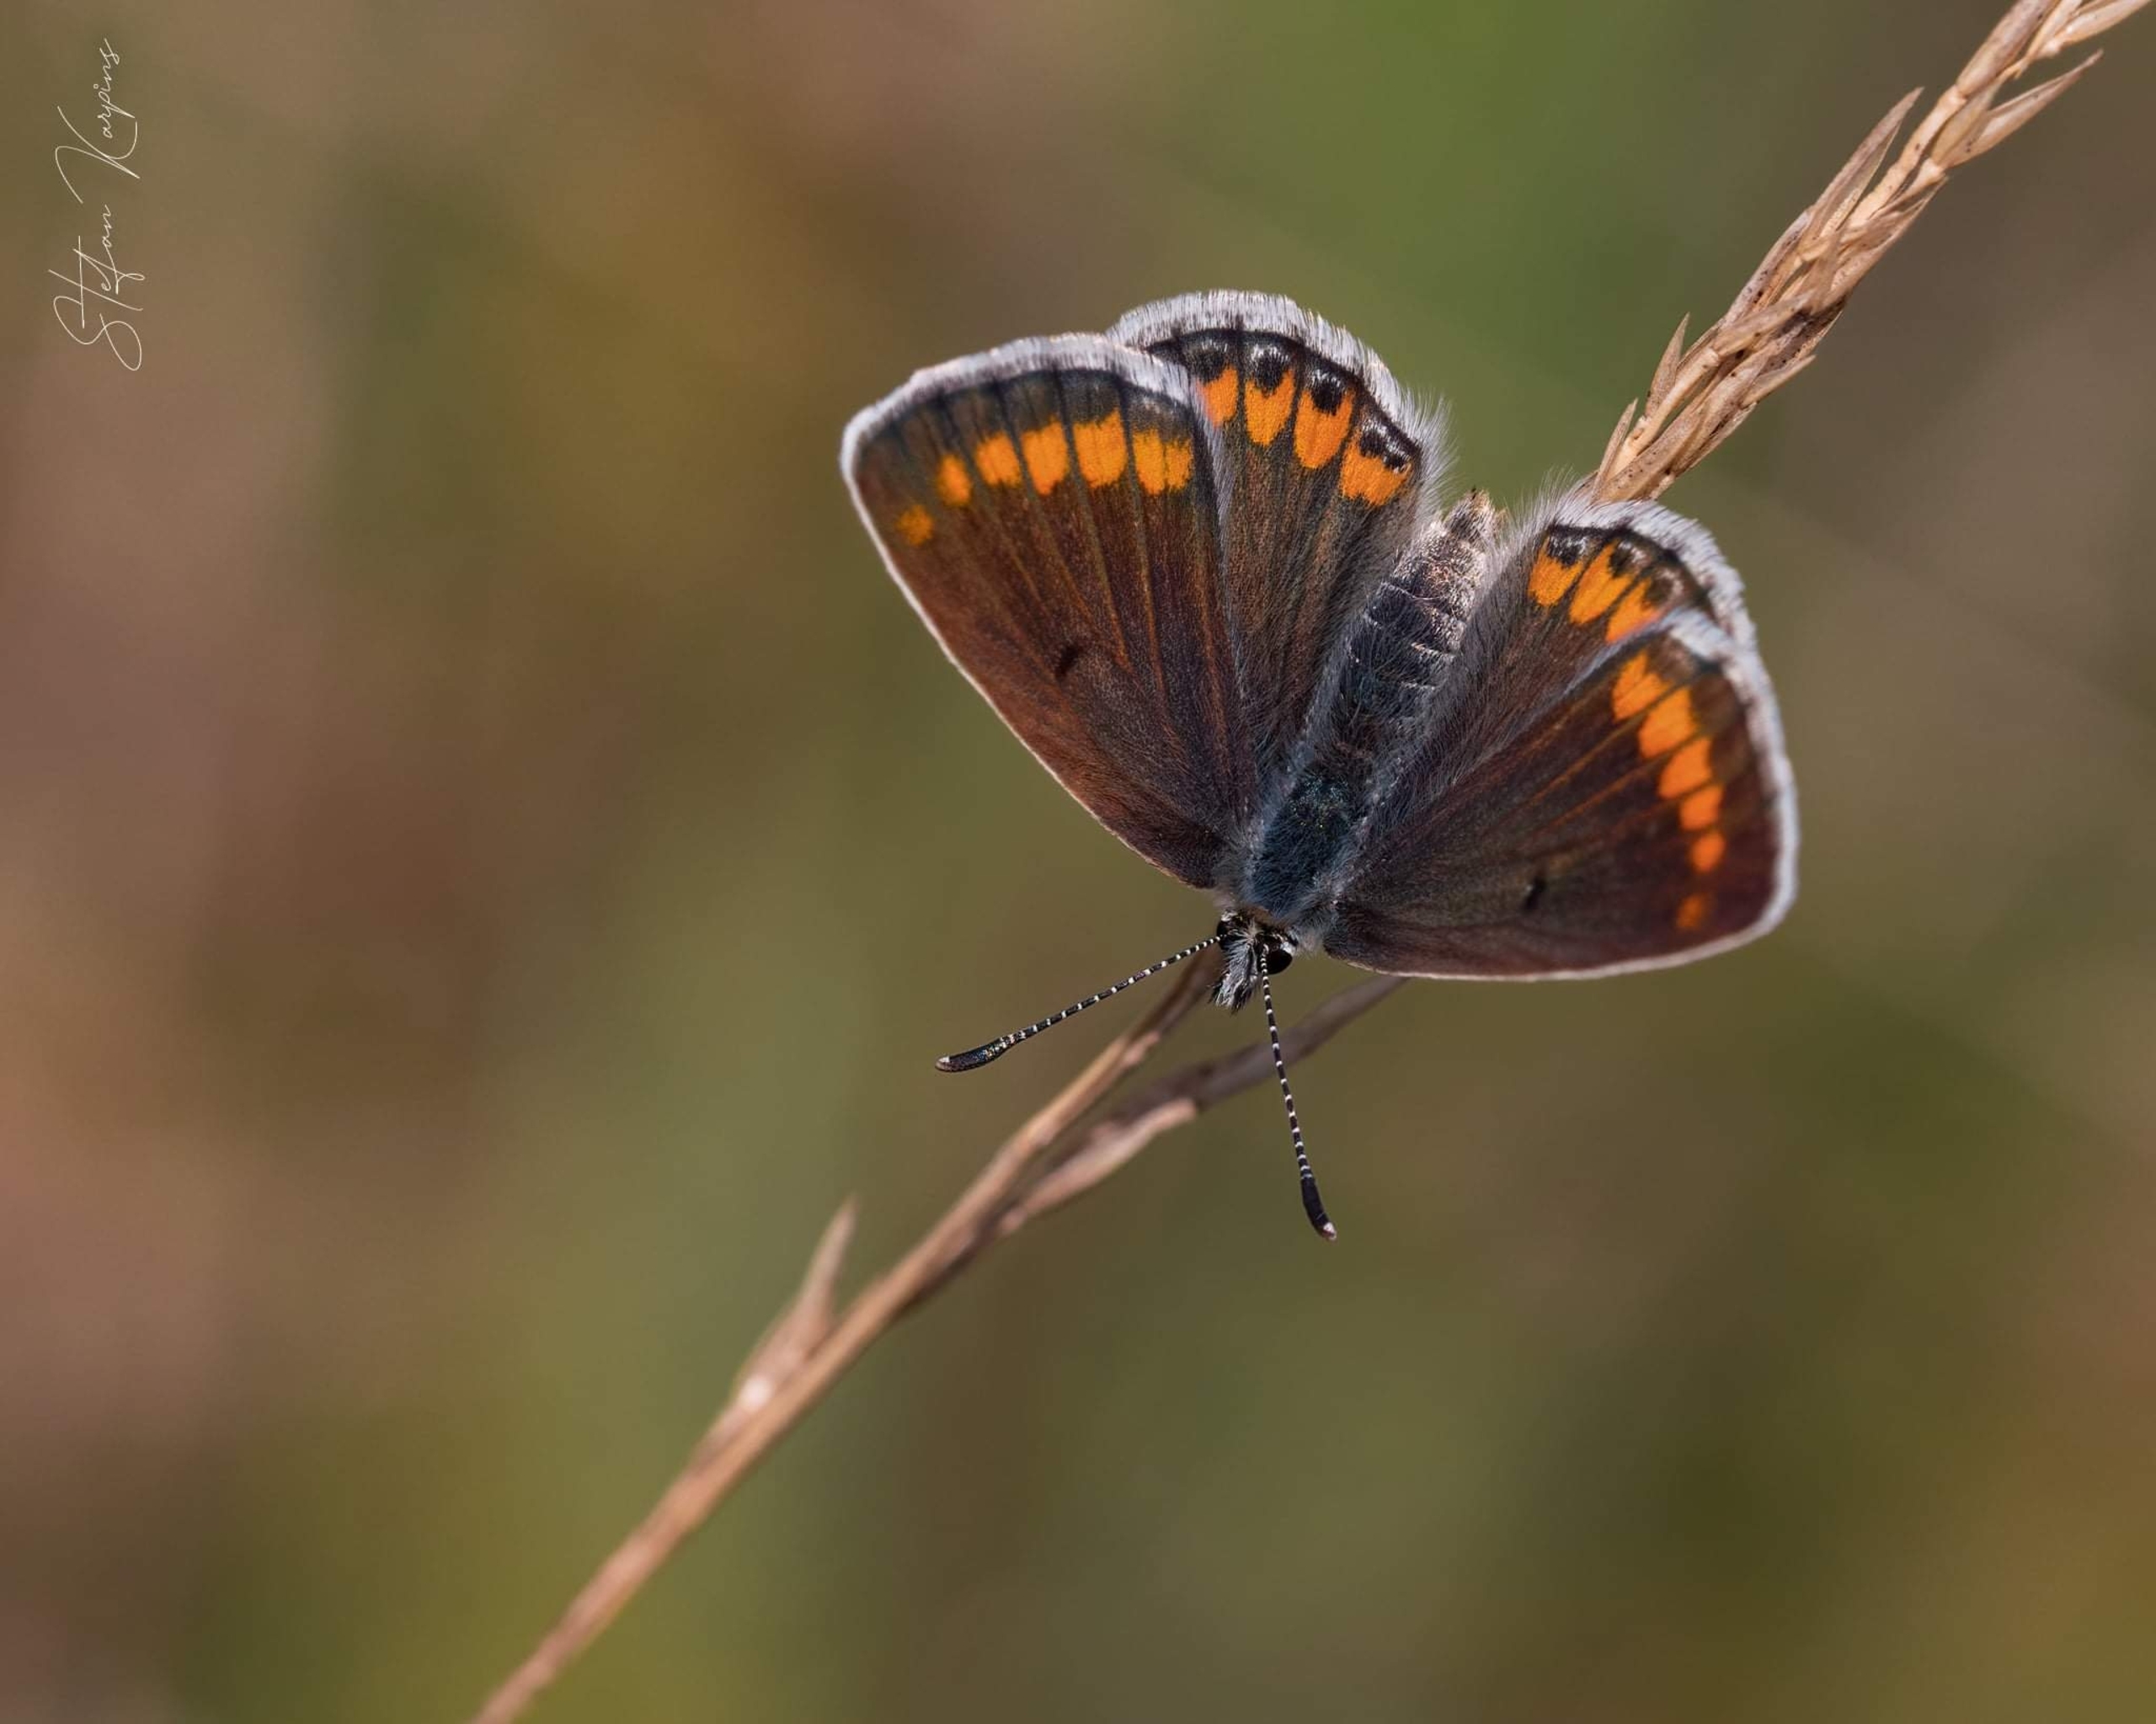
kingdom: Animalia
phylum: Arthropoda
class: Insecta
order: Lepidoptera
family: Lycaenidae
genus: Aricia
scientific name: Aricia agestis
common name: Rødplettet blåfugl
